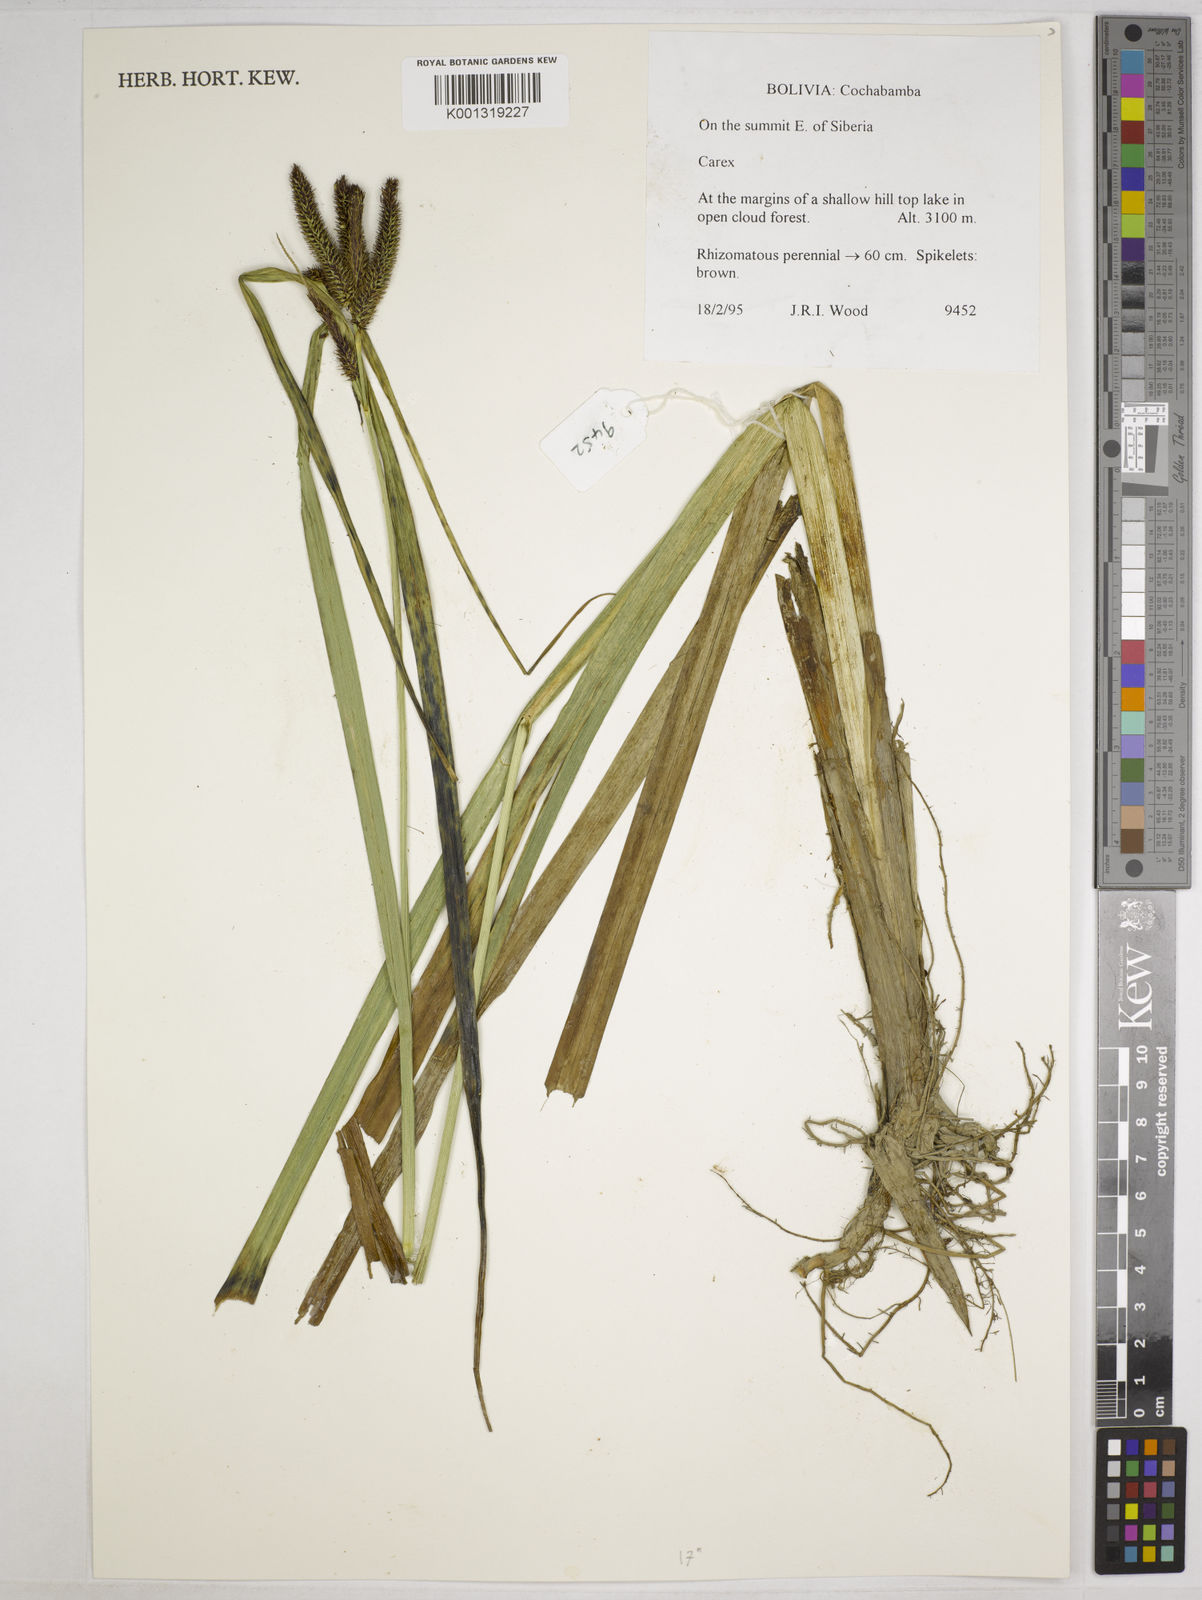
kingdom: Plantae
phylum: Tracheophyta
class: Liliopsida
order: Poales
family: Cyperaceae
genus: Carex
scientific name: Carex acutata
